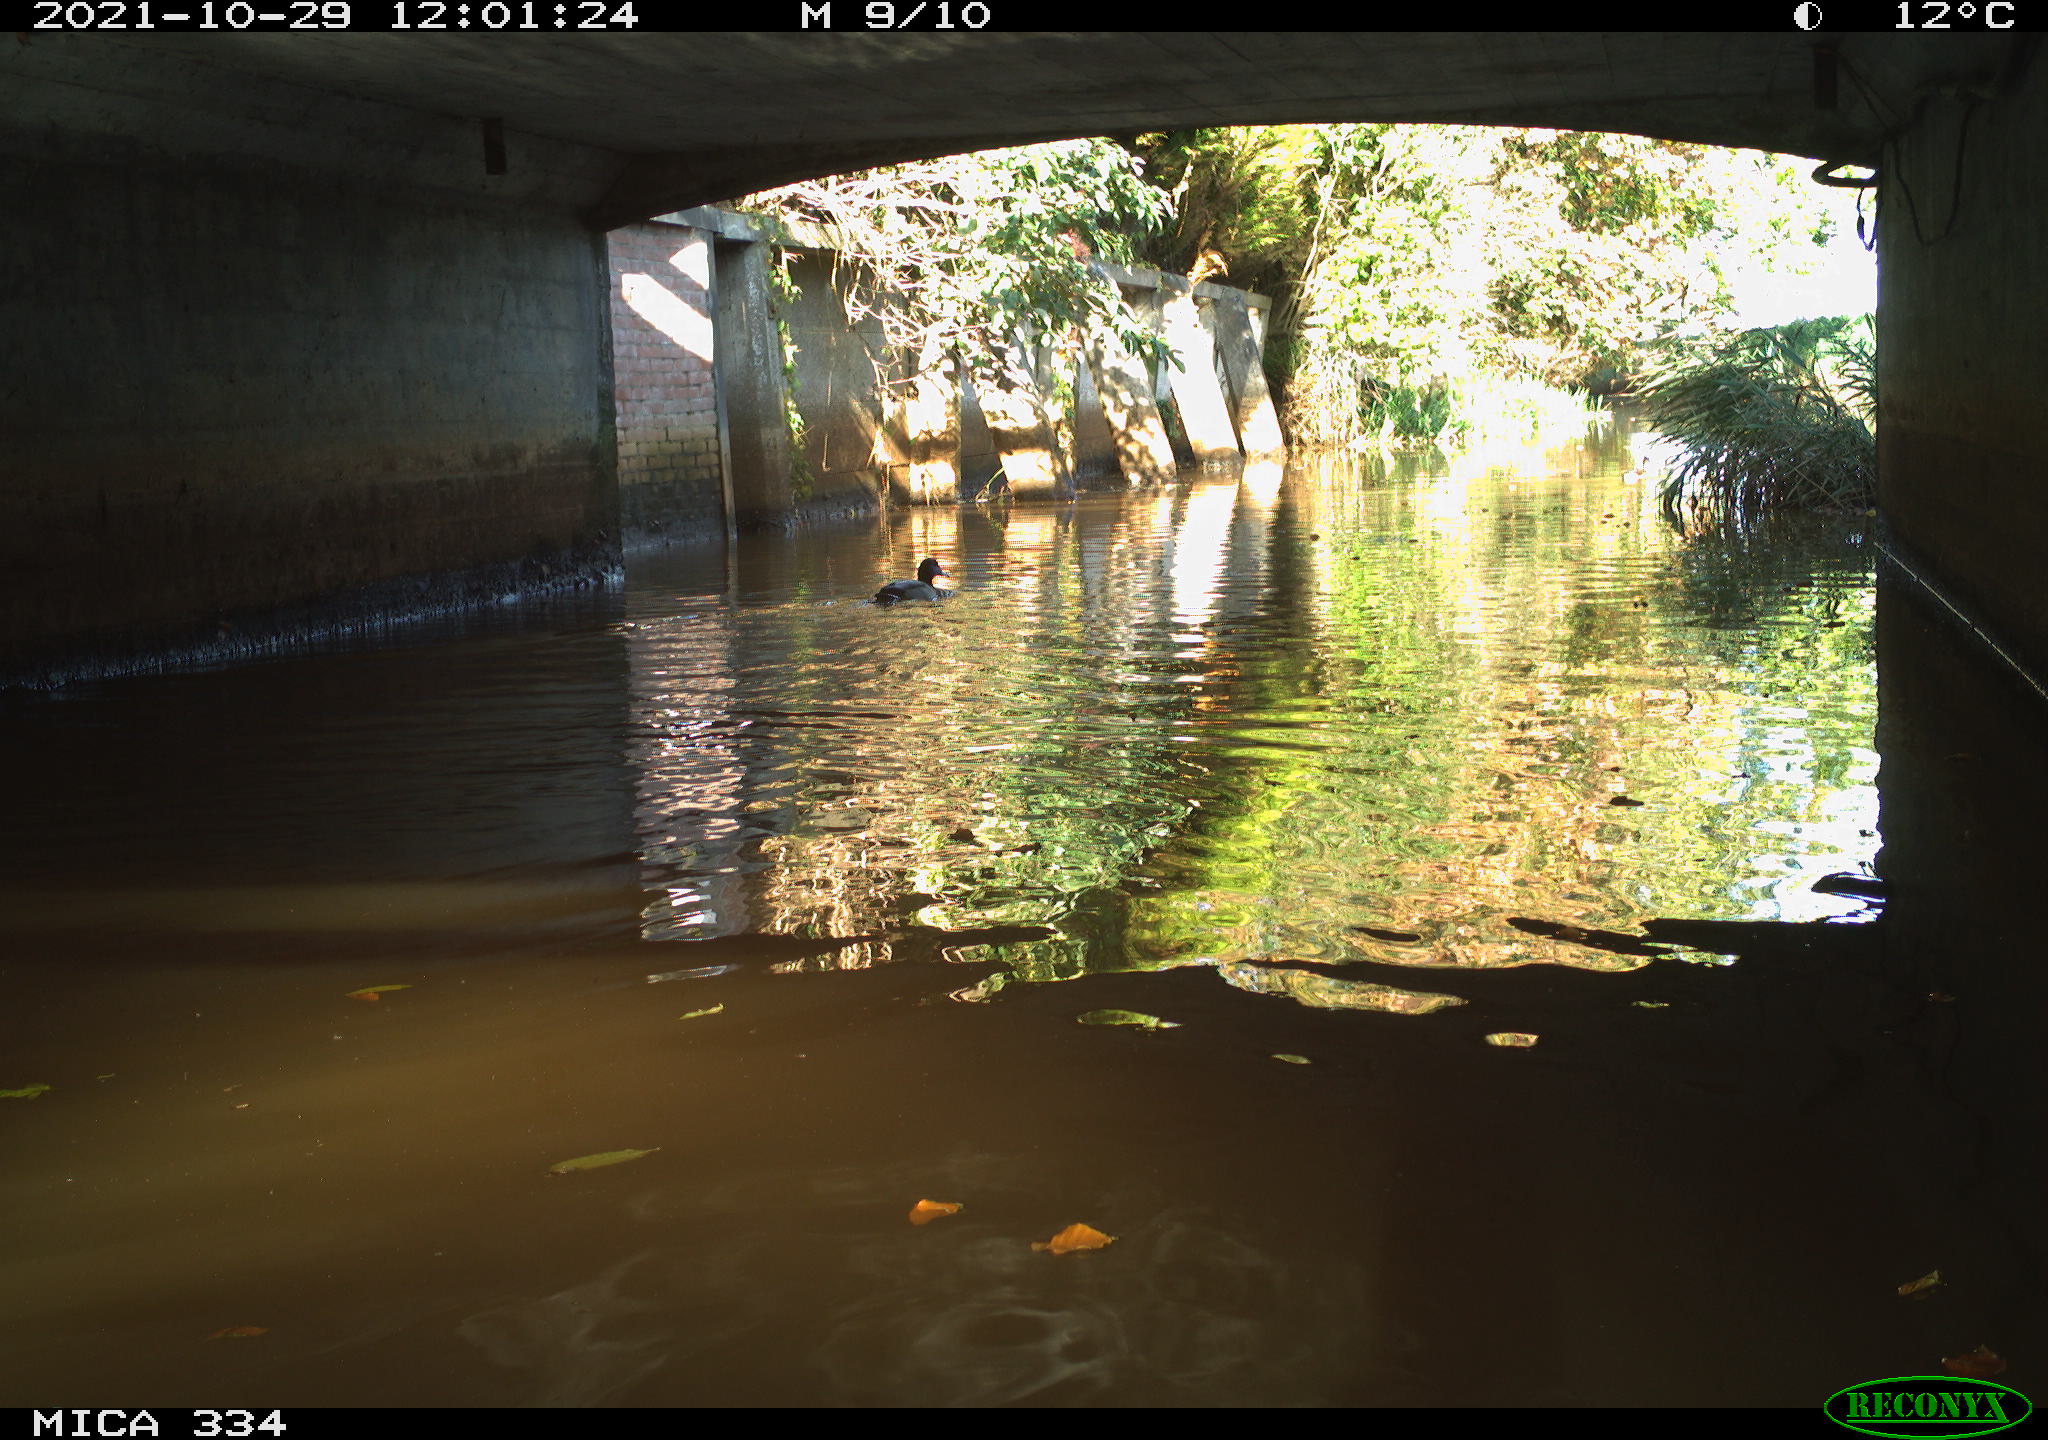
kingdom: Animalia
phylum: Chordata
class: Aves
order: Anseriformes
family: Anatidae
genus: Anas
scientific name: Anas platyrhynchos
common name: Mallard
